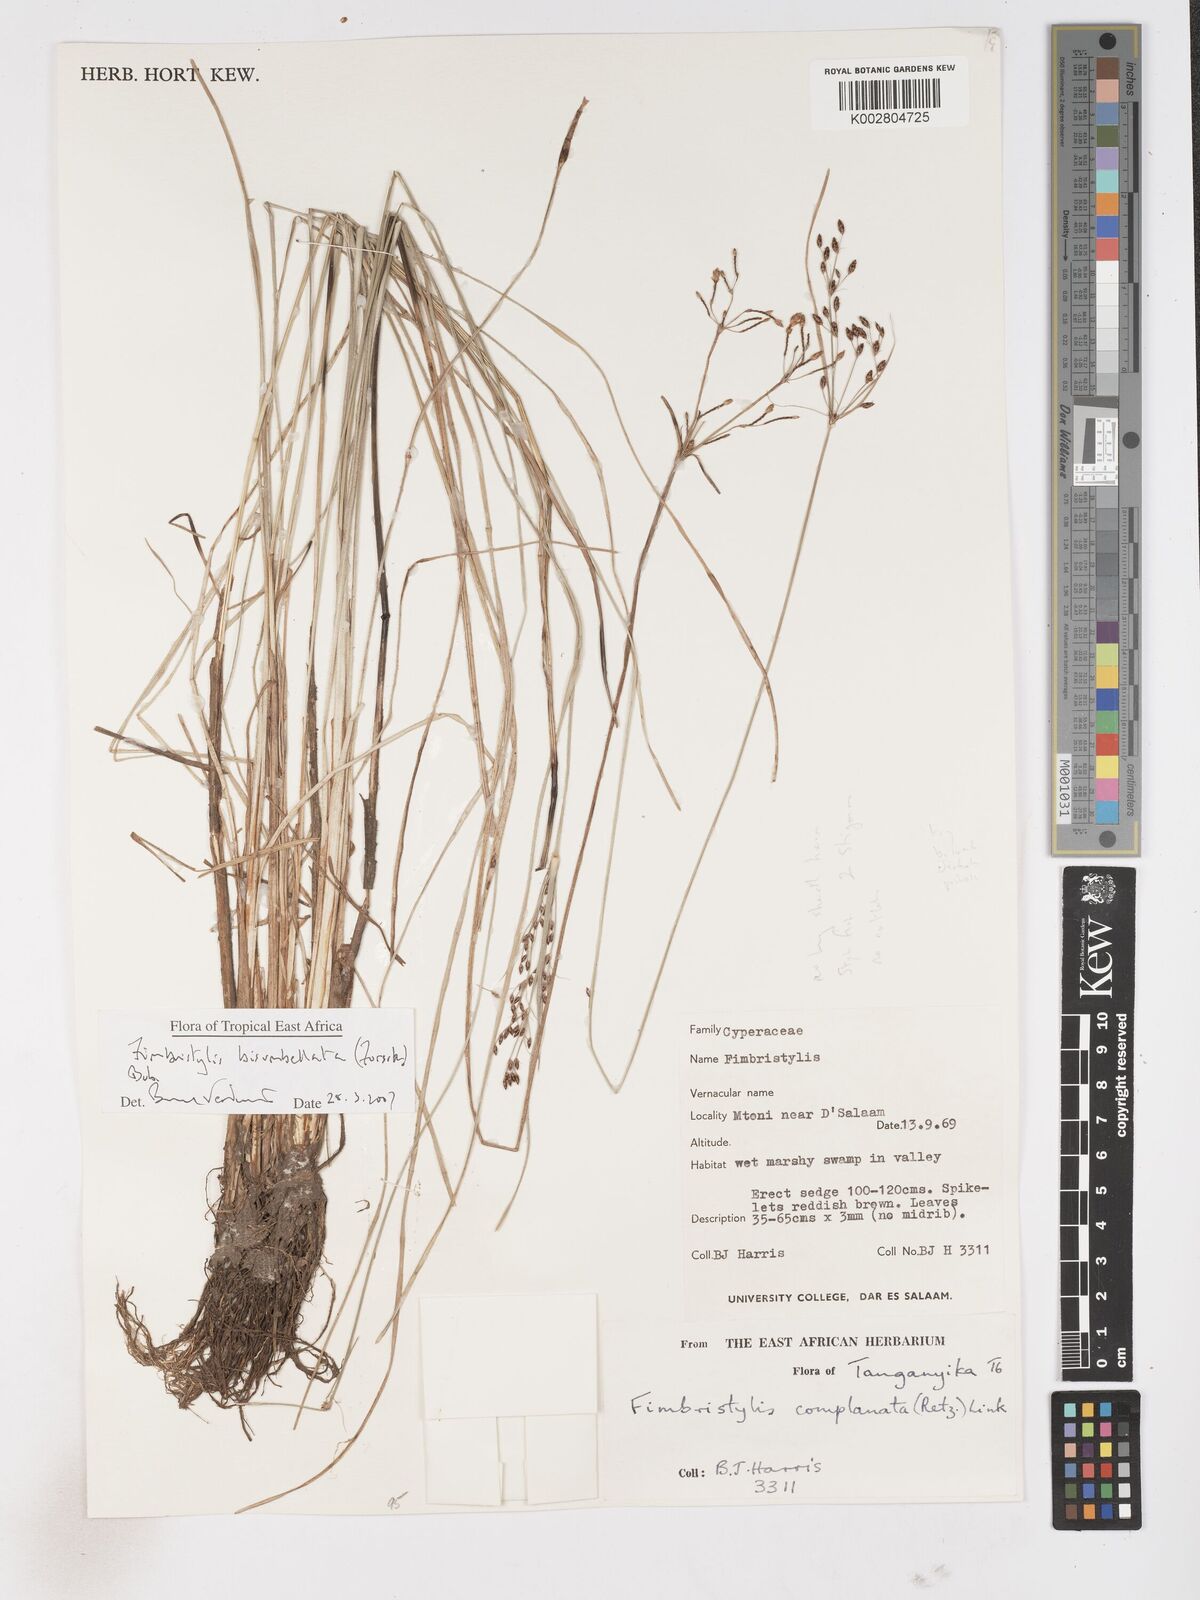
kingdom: Plantae
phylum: Tracheophyta
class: Liliopsida
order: Poales
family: Cyperaceae
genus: Fimbristylis
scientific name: Fimbristylis bisumbellata
